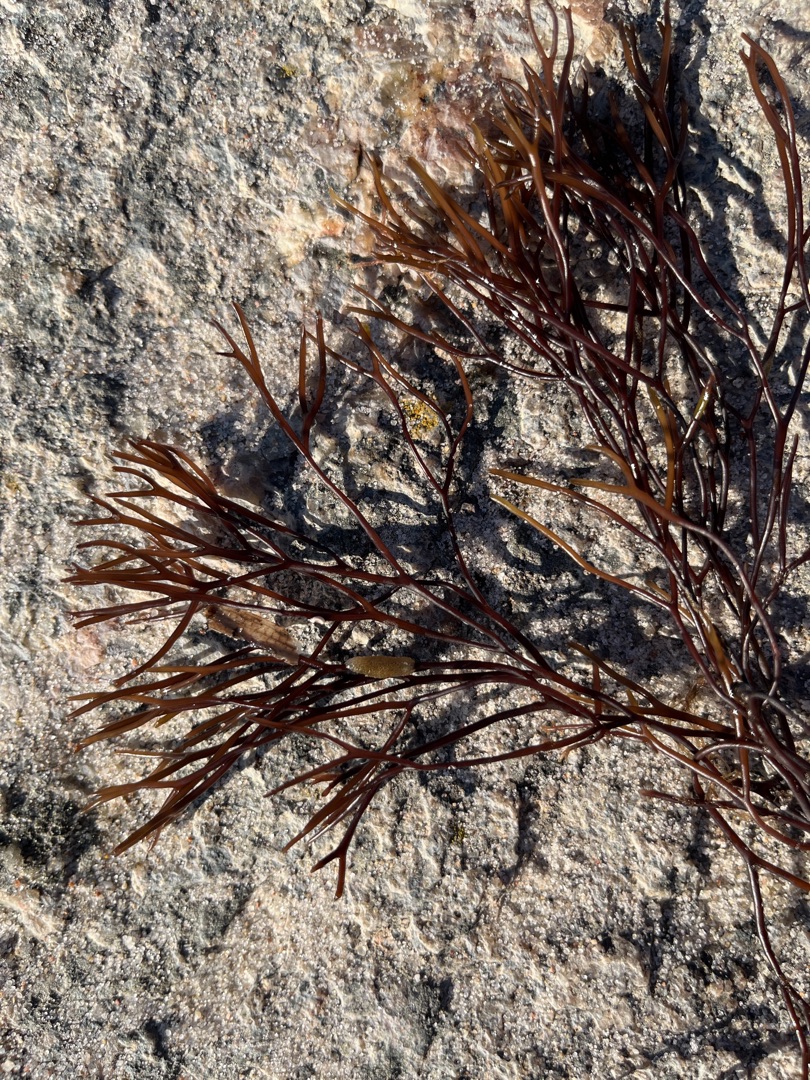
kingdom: Plantae
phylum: Rhodophyta
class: Florideophyceae
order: Gigartinales
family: Furcellariaceae
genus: Furcellaria
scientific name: Furcellaria lumbricalis
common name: Gaffeltang
